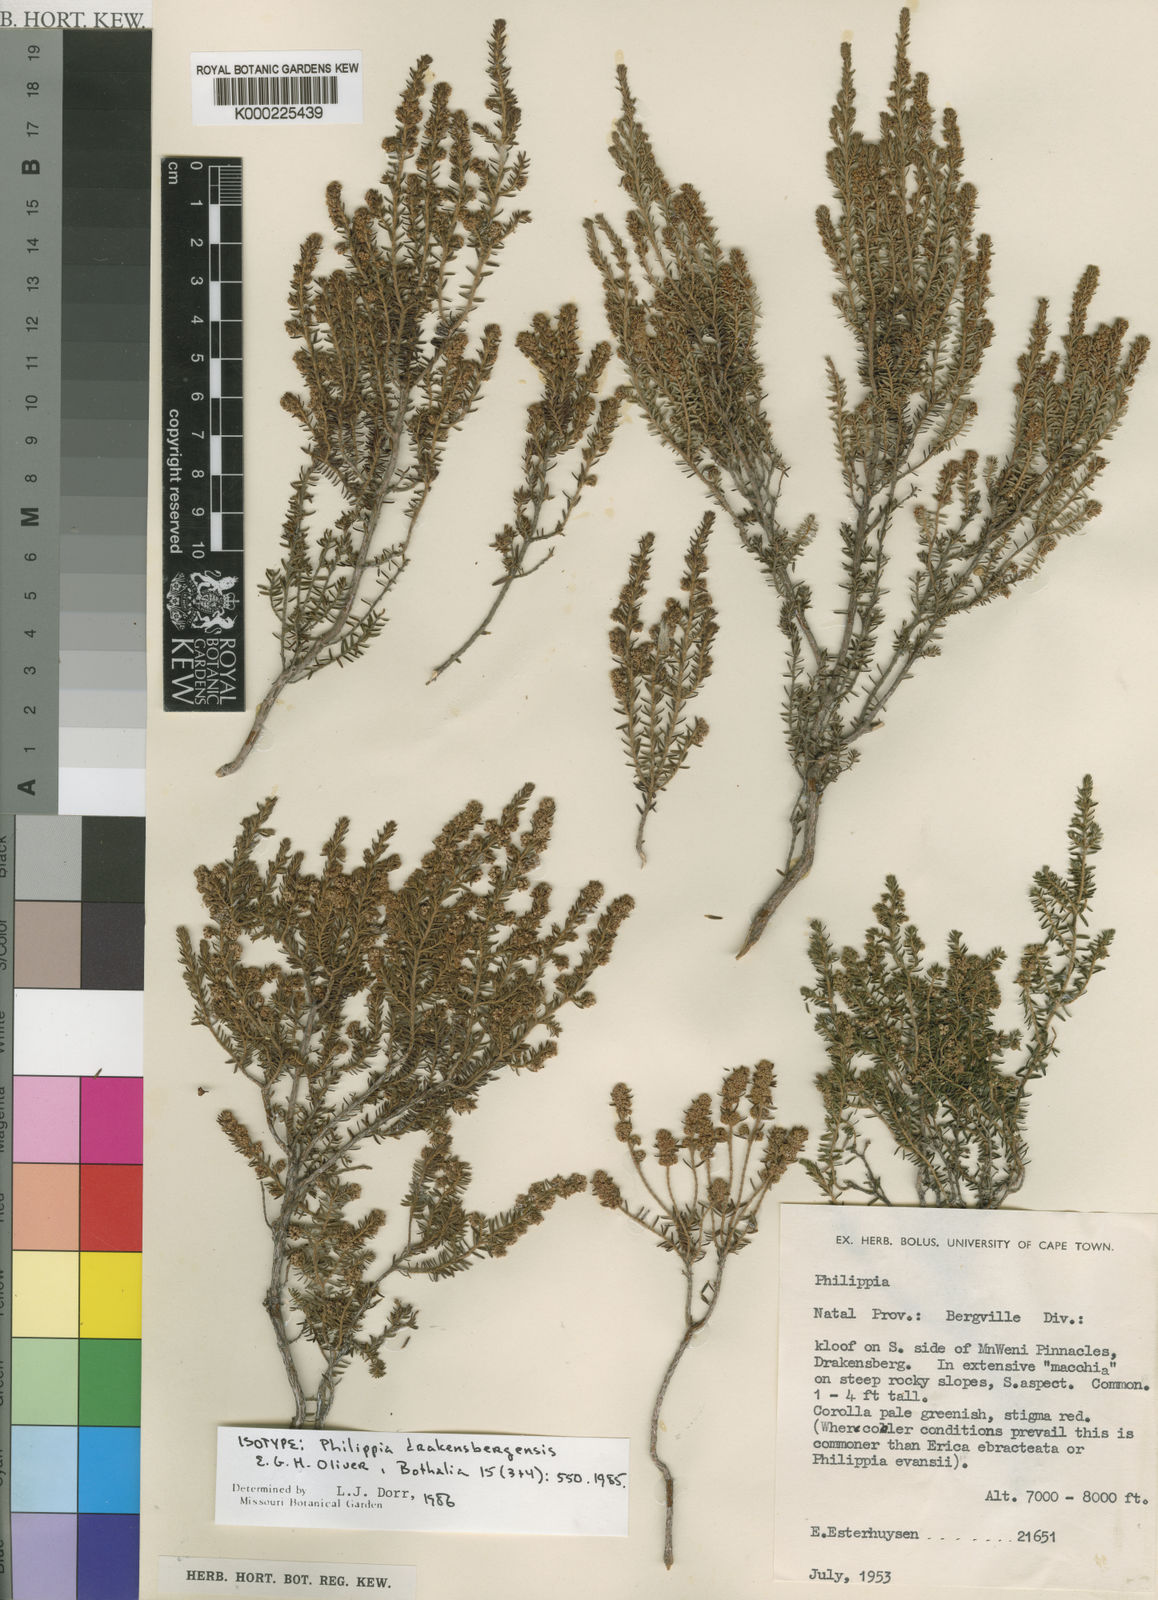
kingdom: Plantae
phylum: Tracheophyta
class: Magnoliopsida
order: Ericales
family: Ericaceae
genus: Erica
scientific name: Erica dracomontana
